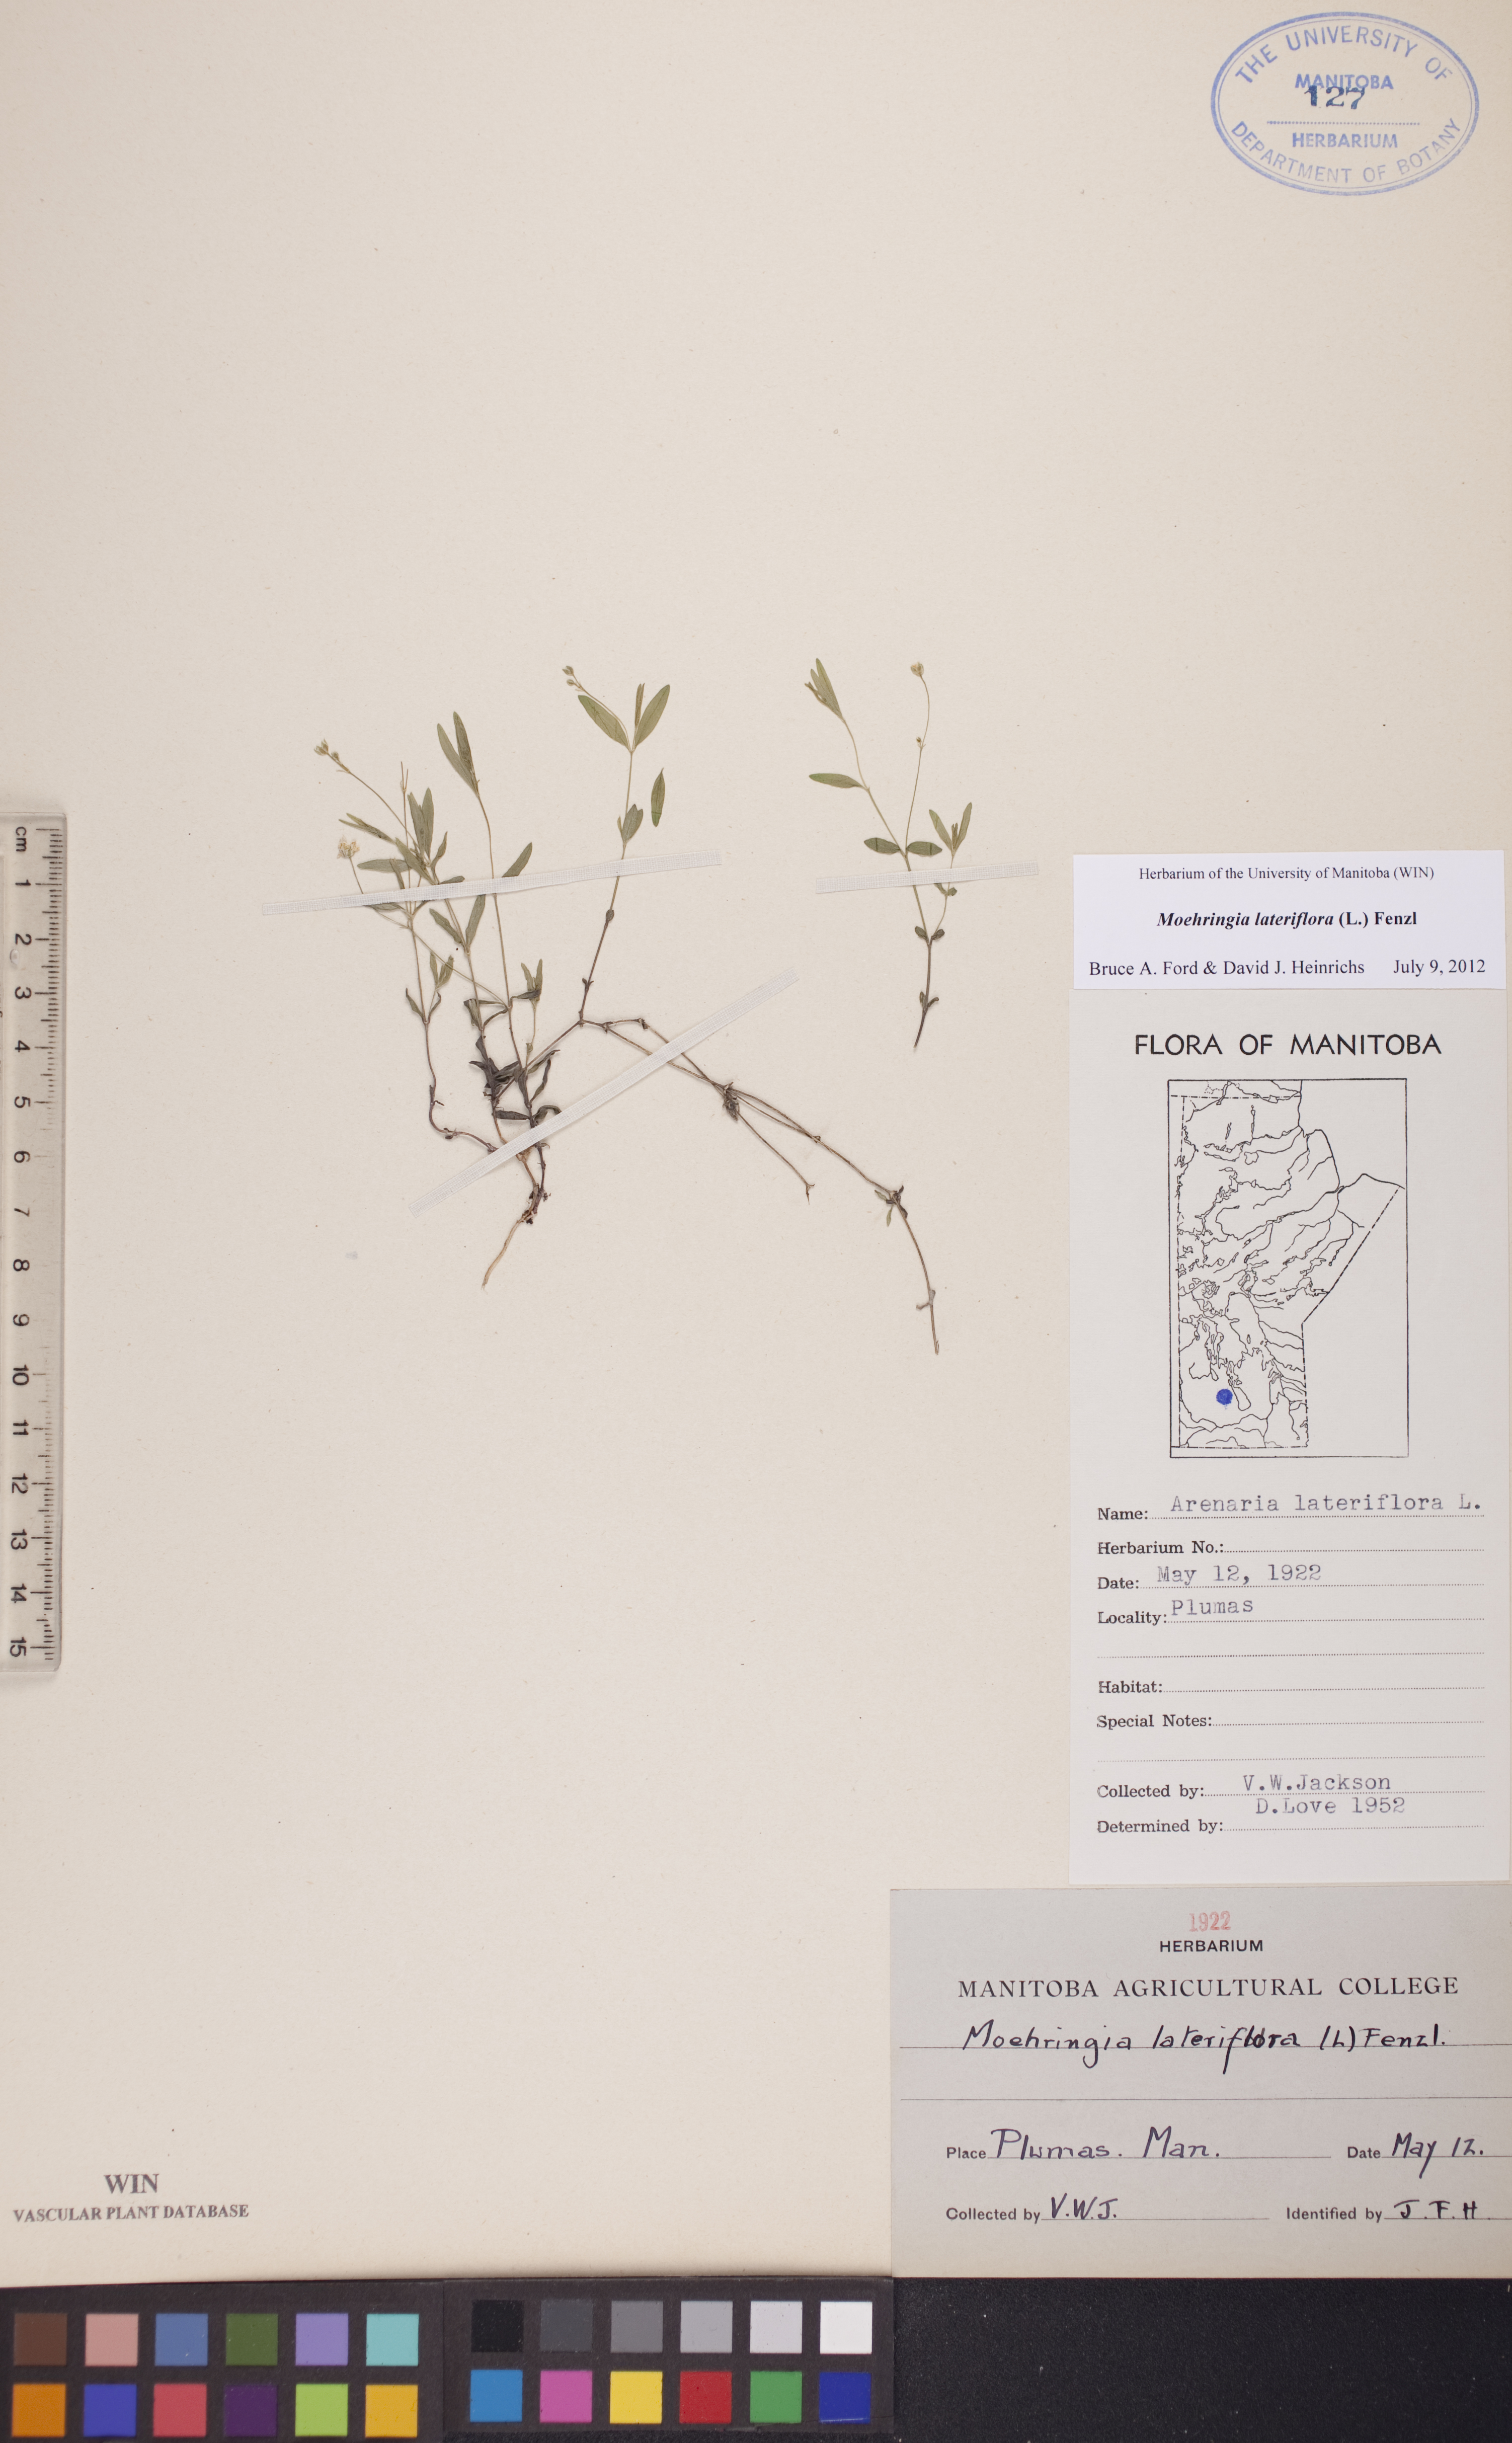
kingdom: Plantae
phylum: Tracheophyta
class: Magnoliopsida
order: Caryophyllales
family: Caryophyllaceae
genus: Moehringia
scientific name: Moehringia lateriflora
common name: Blunt-leaved sandwort
